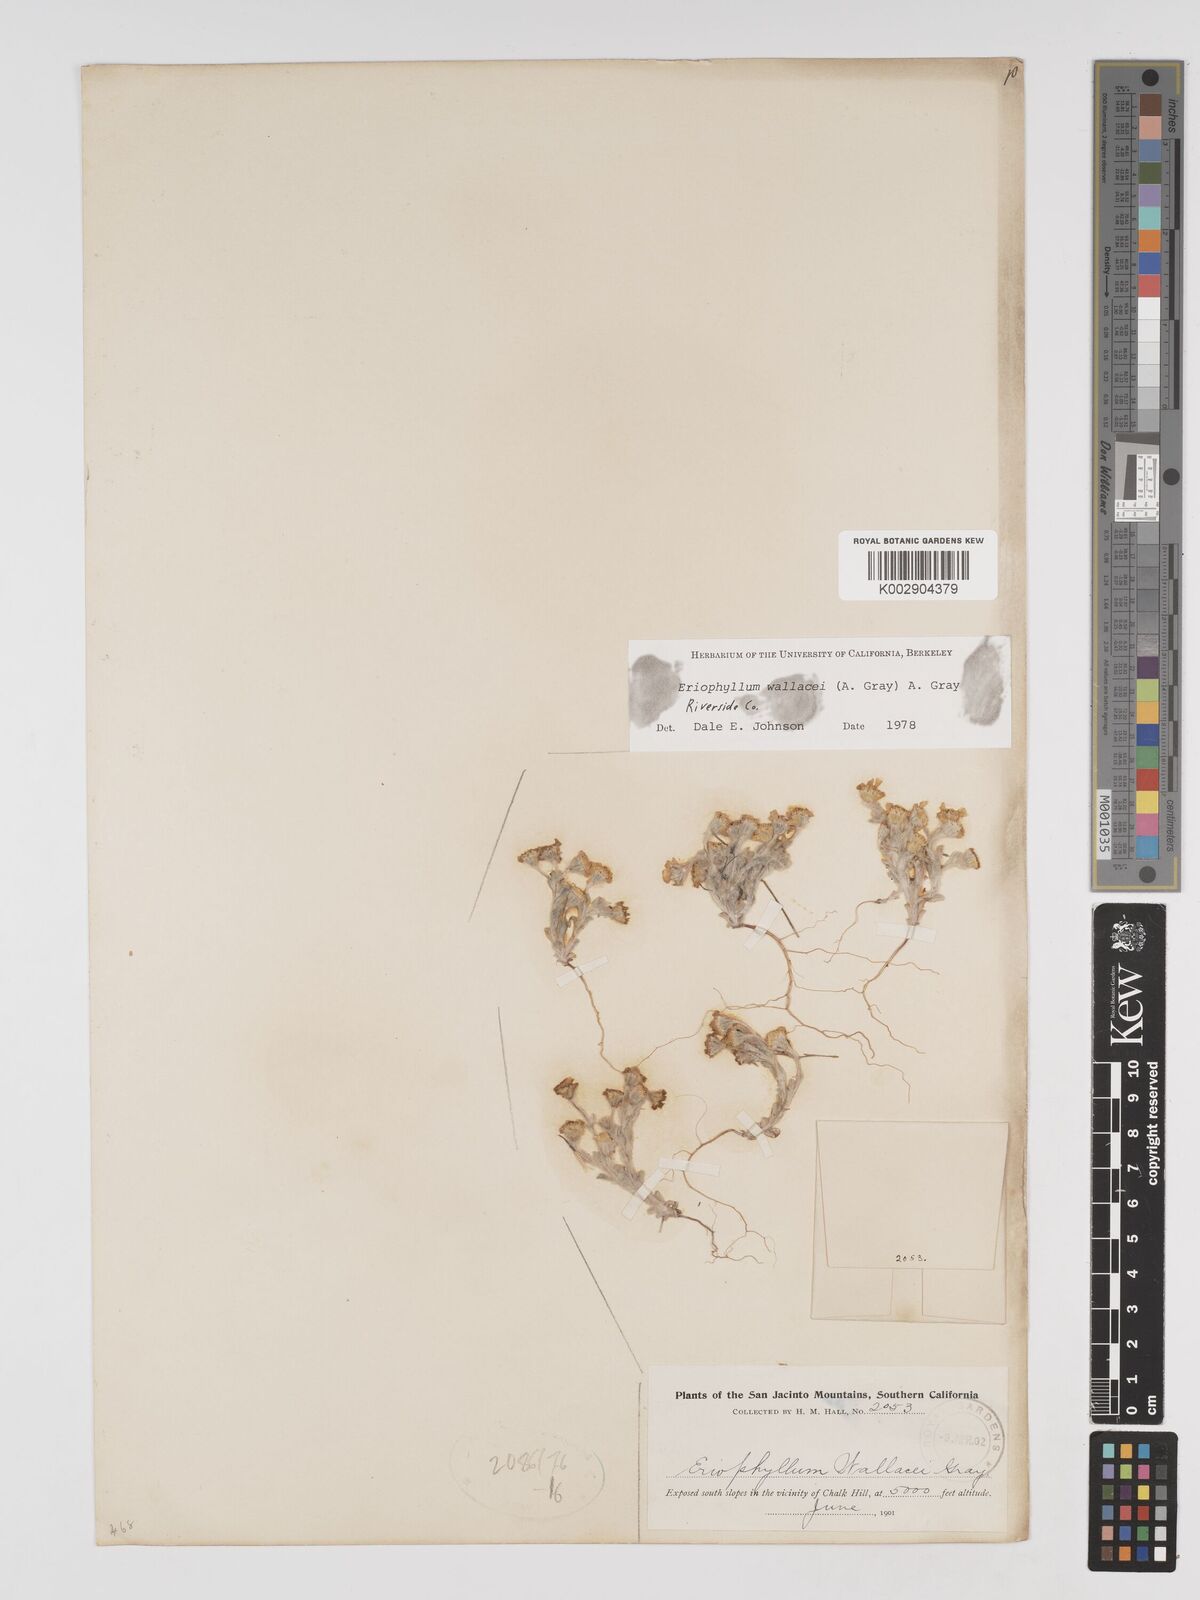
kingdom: Plantae
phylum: Tracheophyta
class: Magnoliopsida
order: Asterales
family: Asteraceae
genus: Eriophyllum
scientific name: Eriophyllum lanosum
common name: White easter-bonnets
